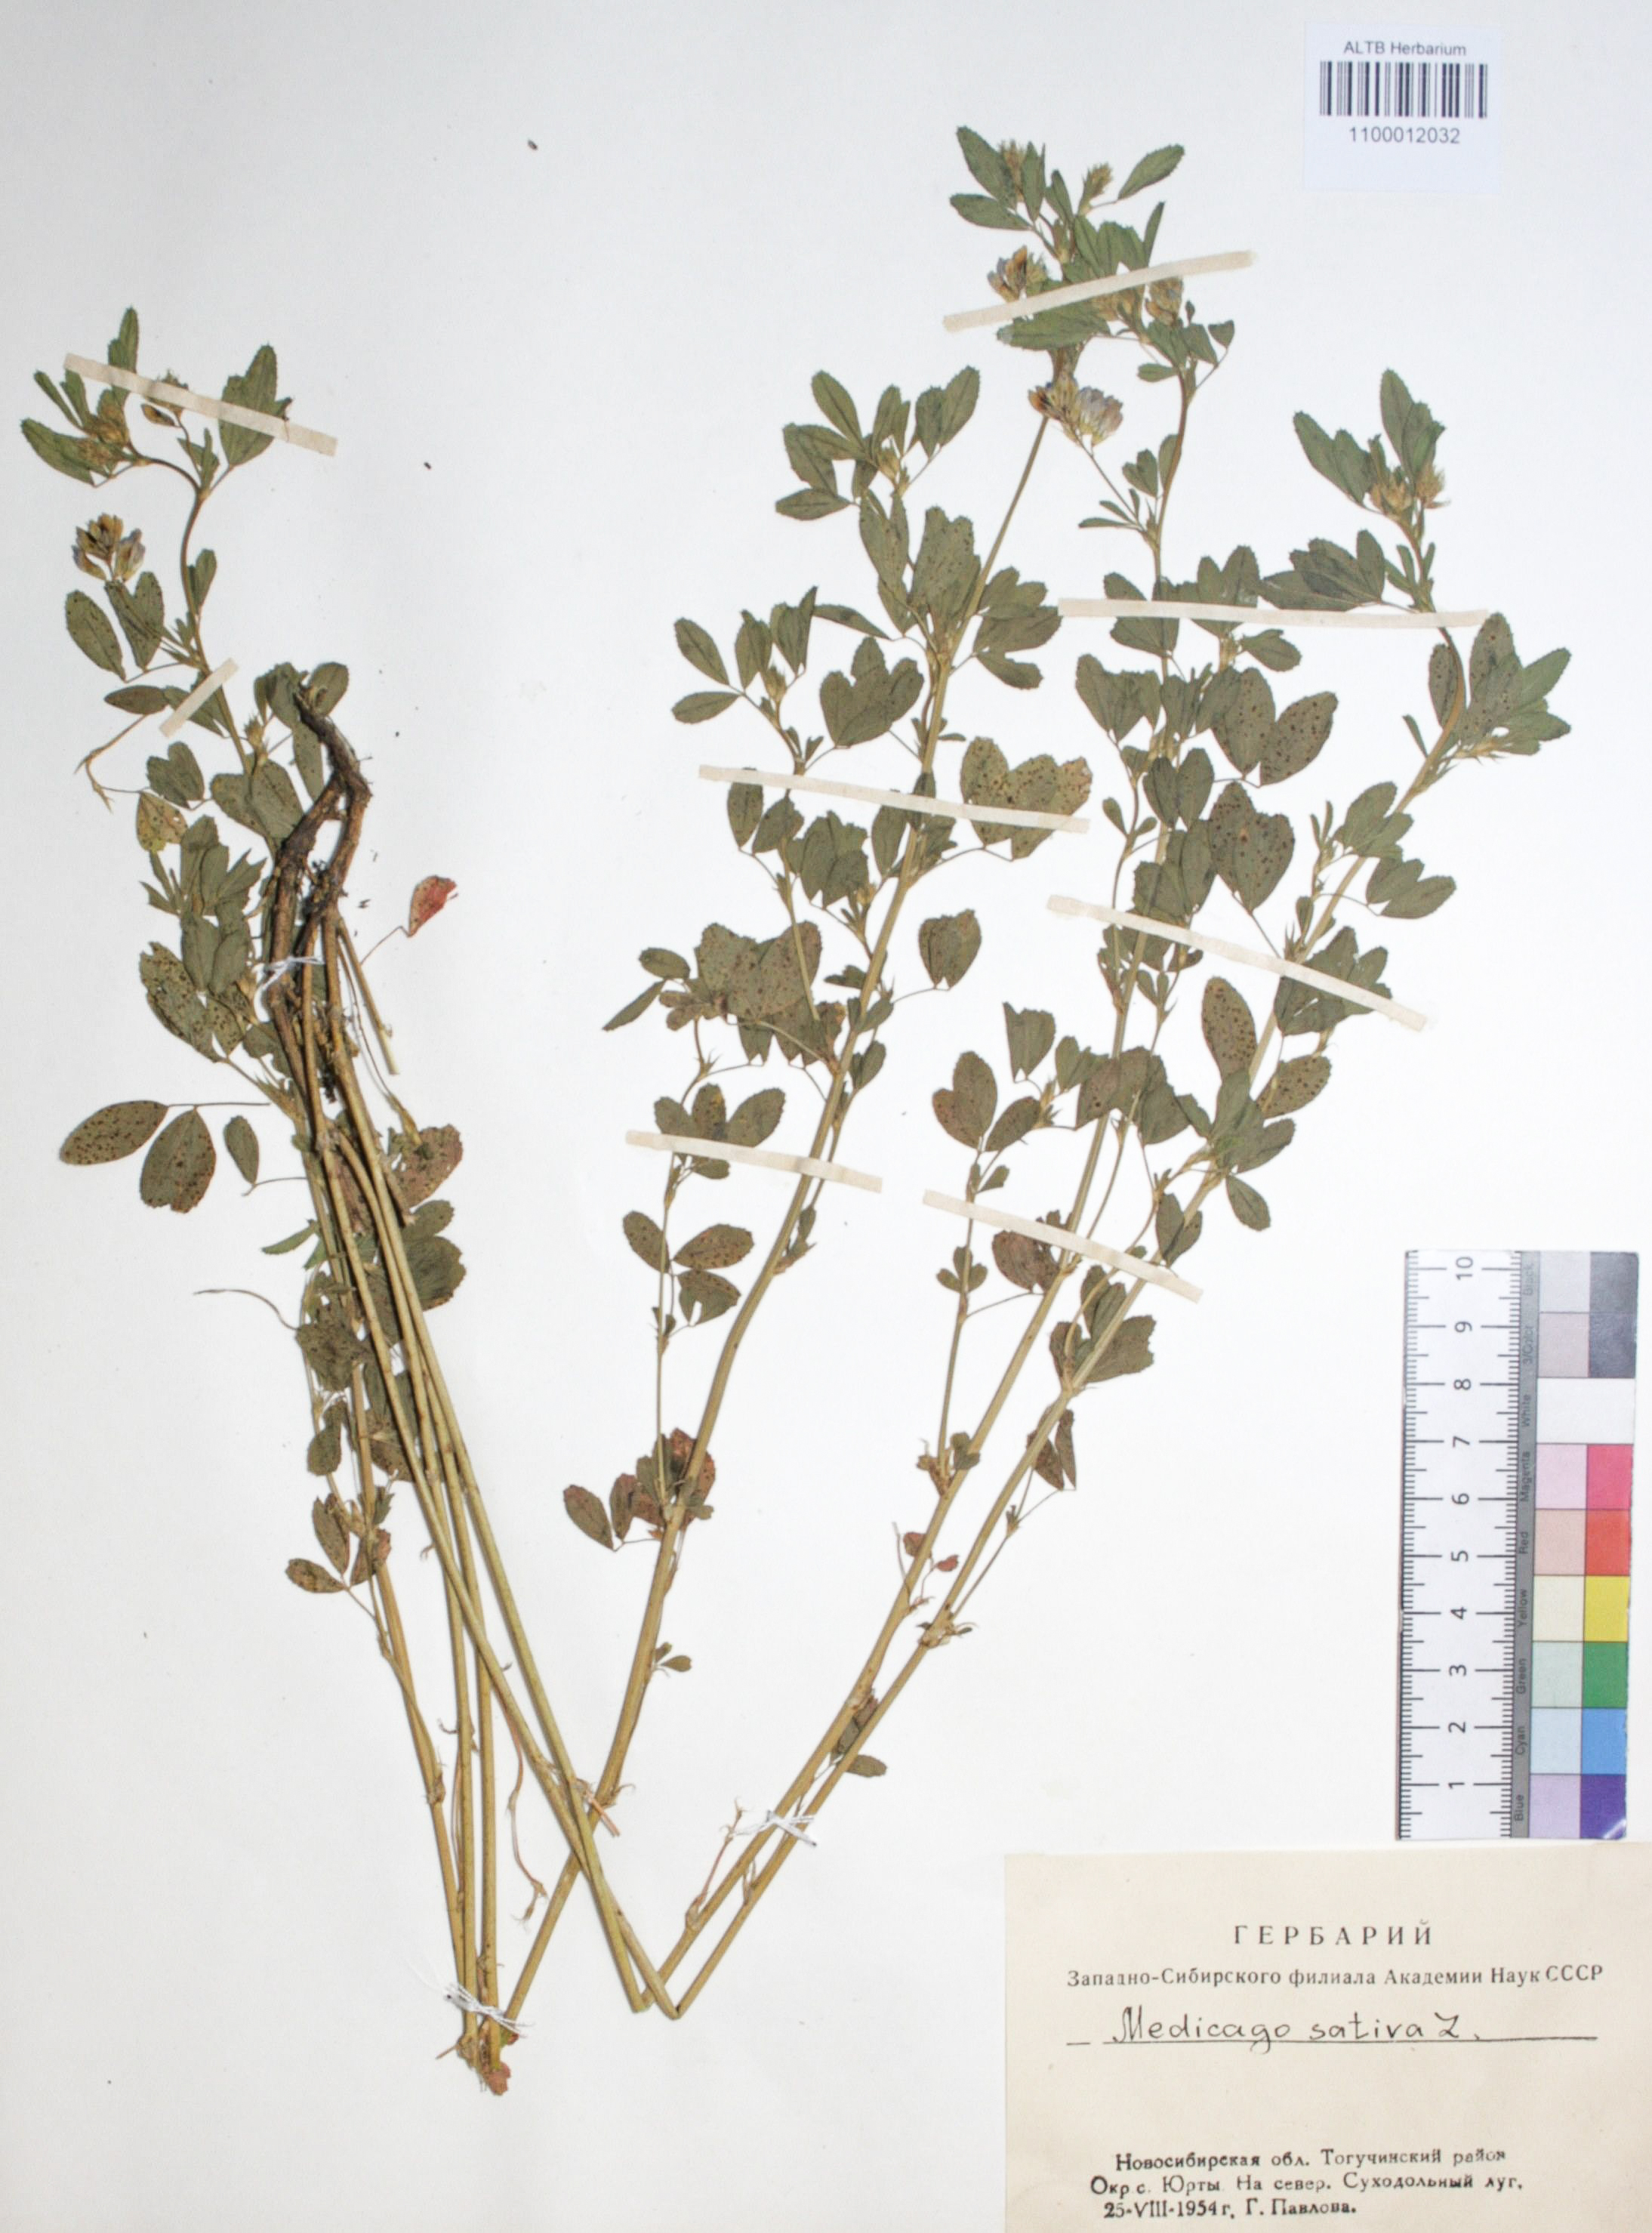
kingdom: Plantae
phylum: Tracheophyta
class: Magnoliopsida
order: Fabales
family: Fabaceae
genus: Medicago
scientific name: Medicago sativa
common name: Alfalfa
